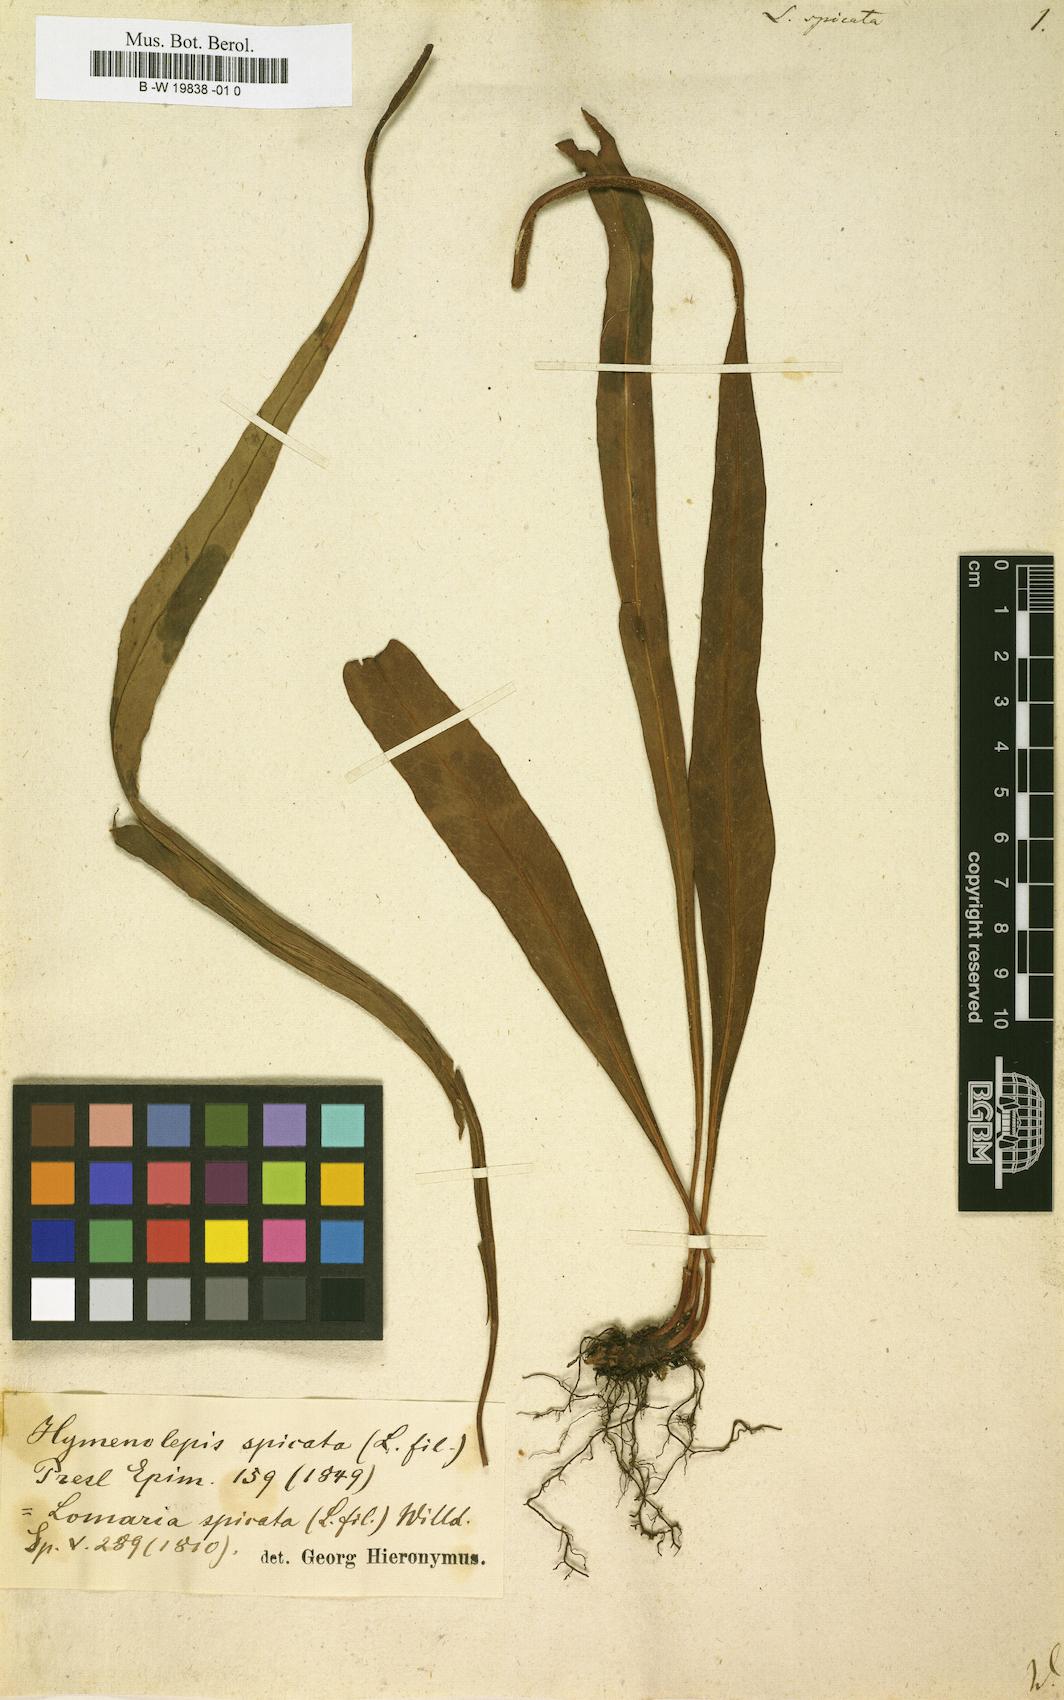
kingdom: Plantae
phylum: Tracheophyta
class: Polypodiopsida
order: Polypodiales
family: Polypodiaceae
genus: Lepisorus
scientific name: Lepisorus spicatus
